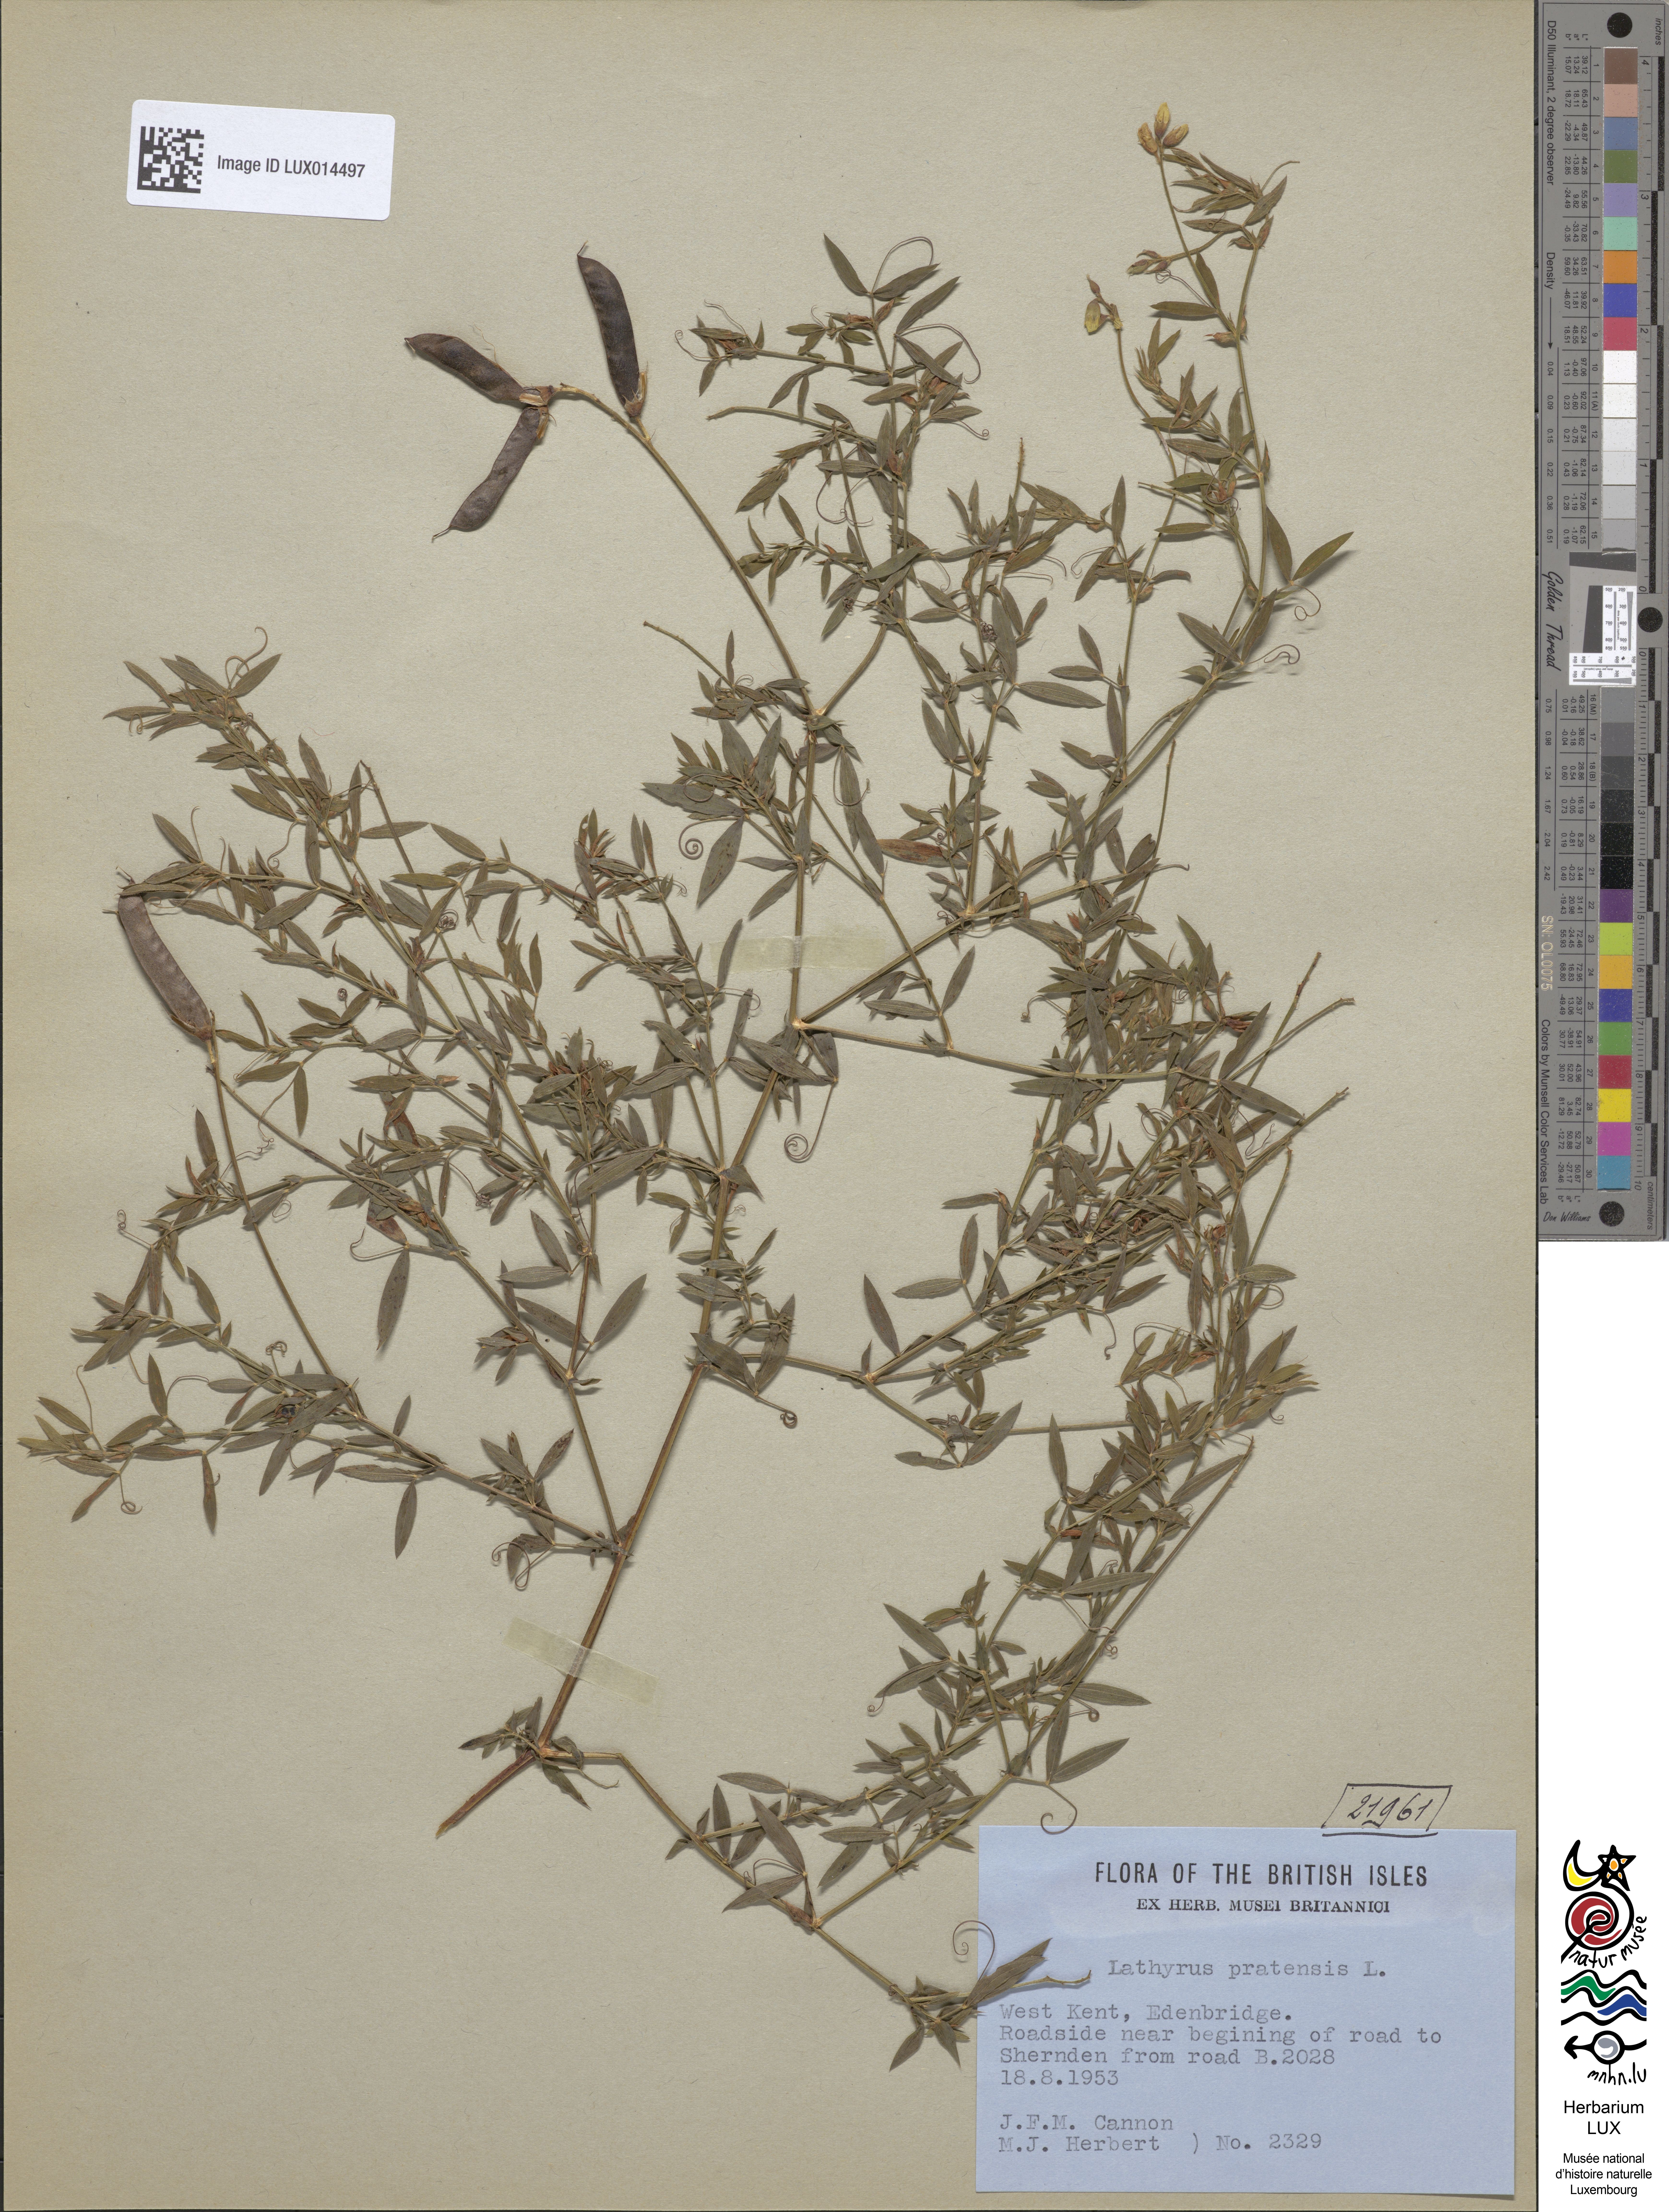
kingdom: Plantae
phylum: Tracheophyta
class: Magnoliopsida
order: Fabales
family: Fabaceae
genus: Lathyrus
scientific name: Lathyrus pratensis
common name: Meadow vetchling
